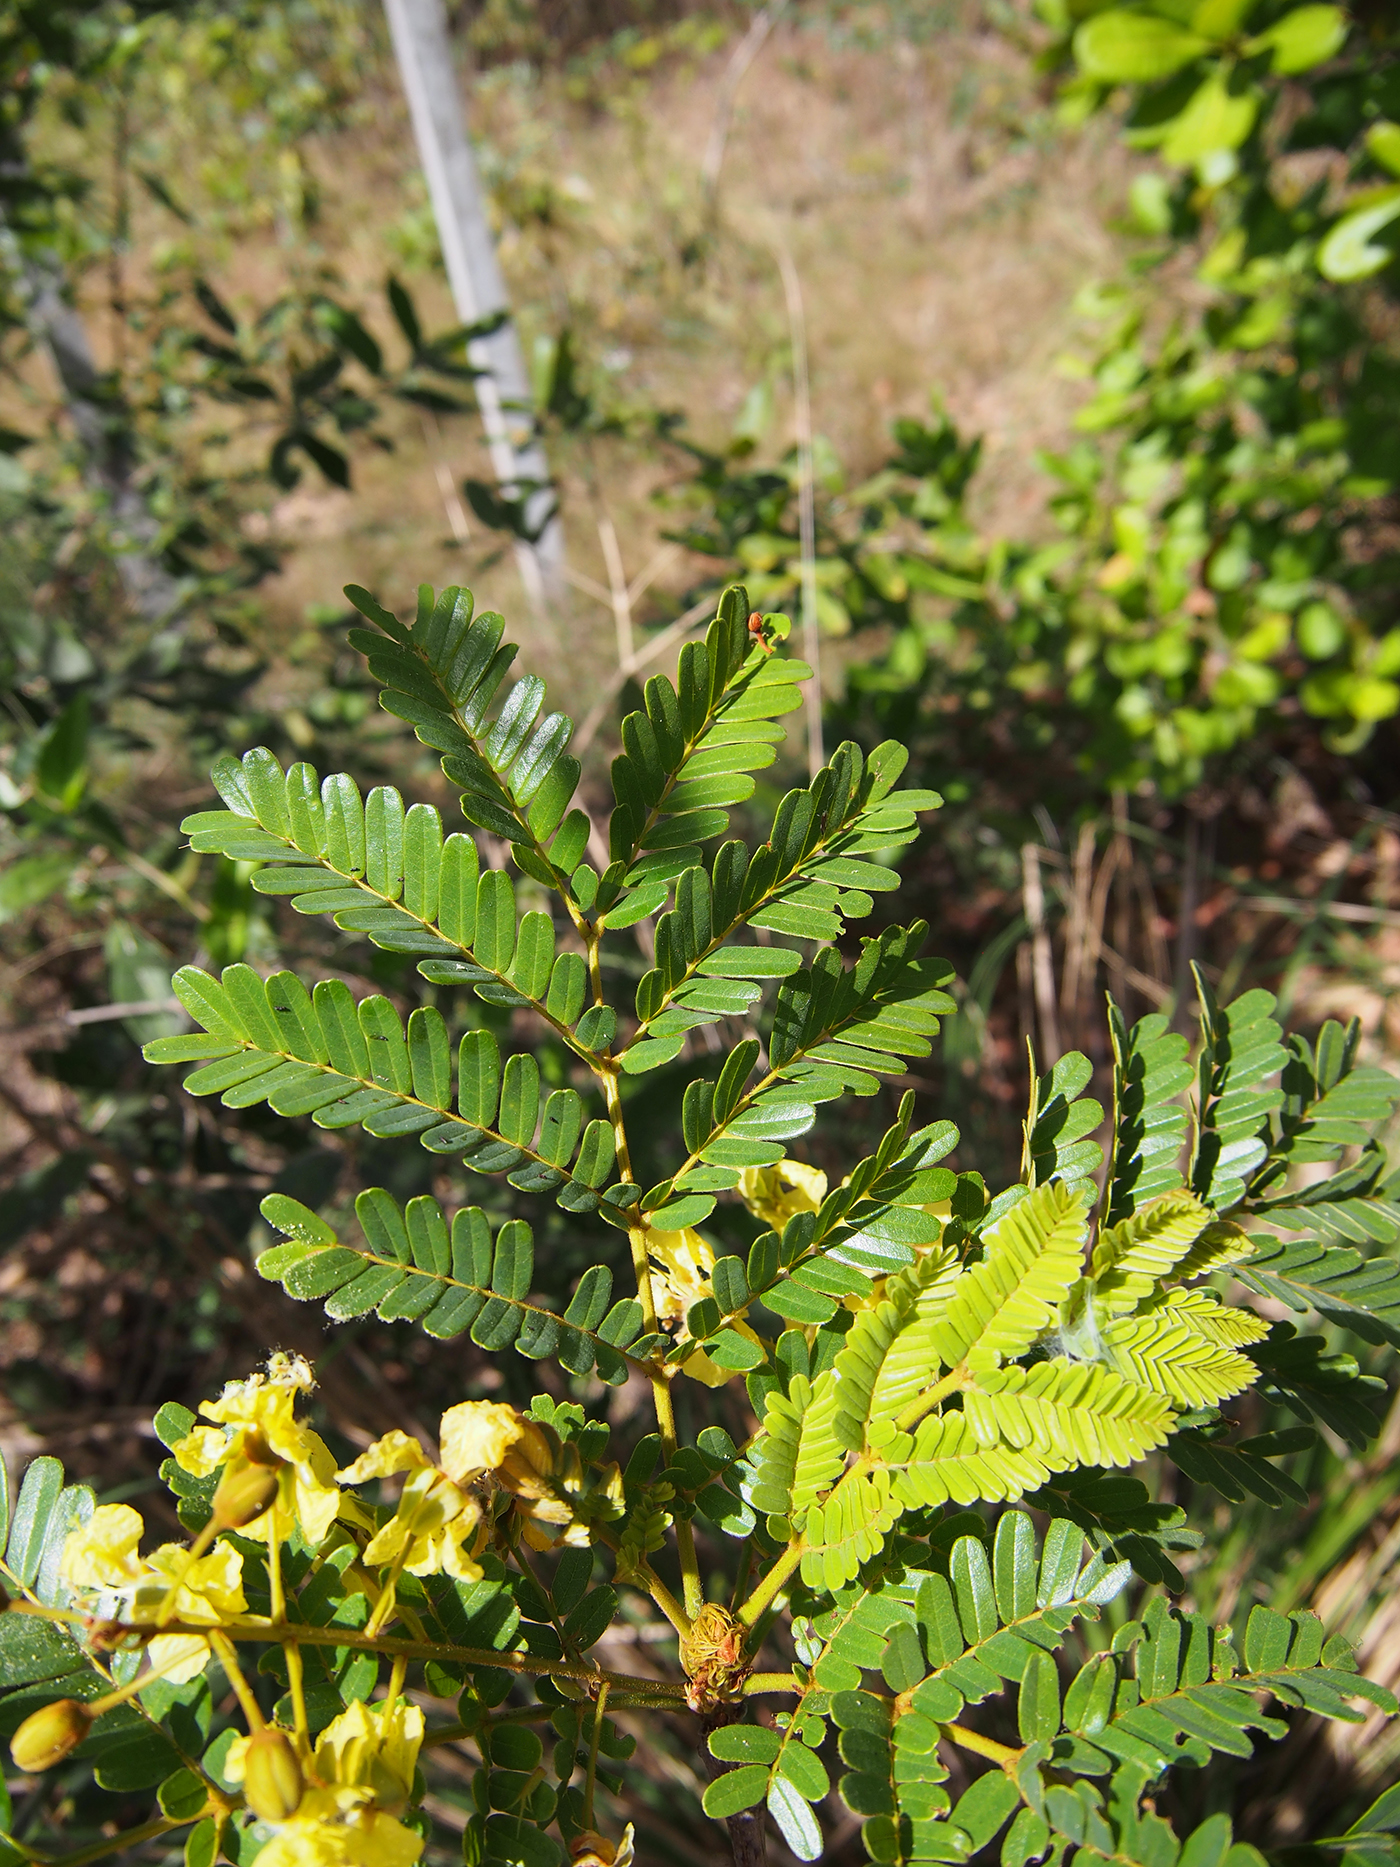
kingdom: Plantae
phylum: Tracheophyta
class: Magnoliopsida
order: Fabales
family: Fabaceae
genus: Peltophorum
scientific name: Peltophorum dasyrhachis
